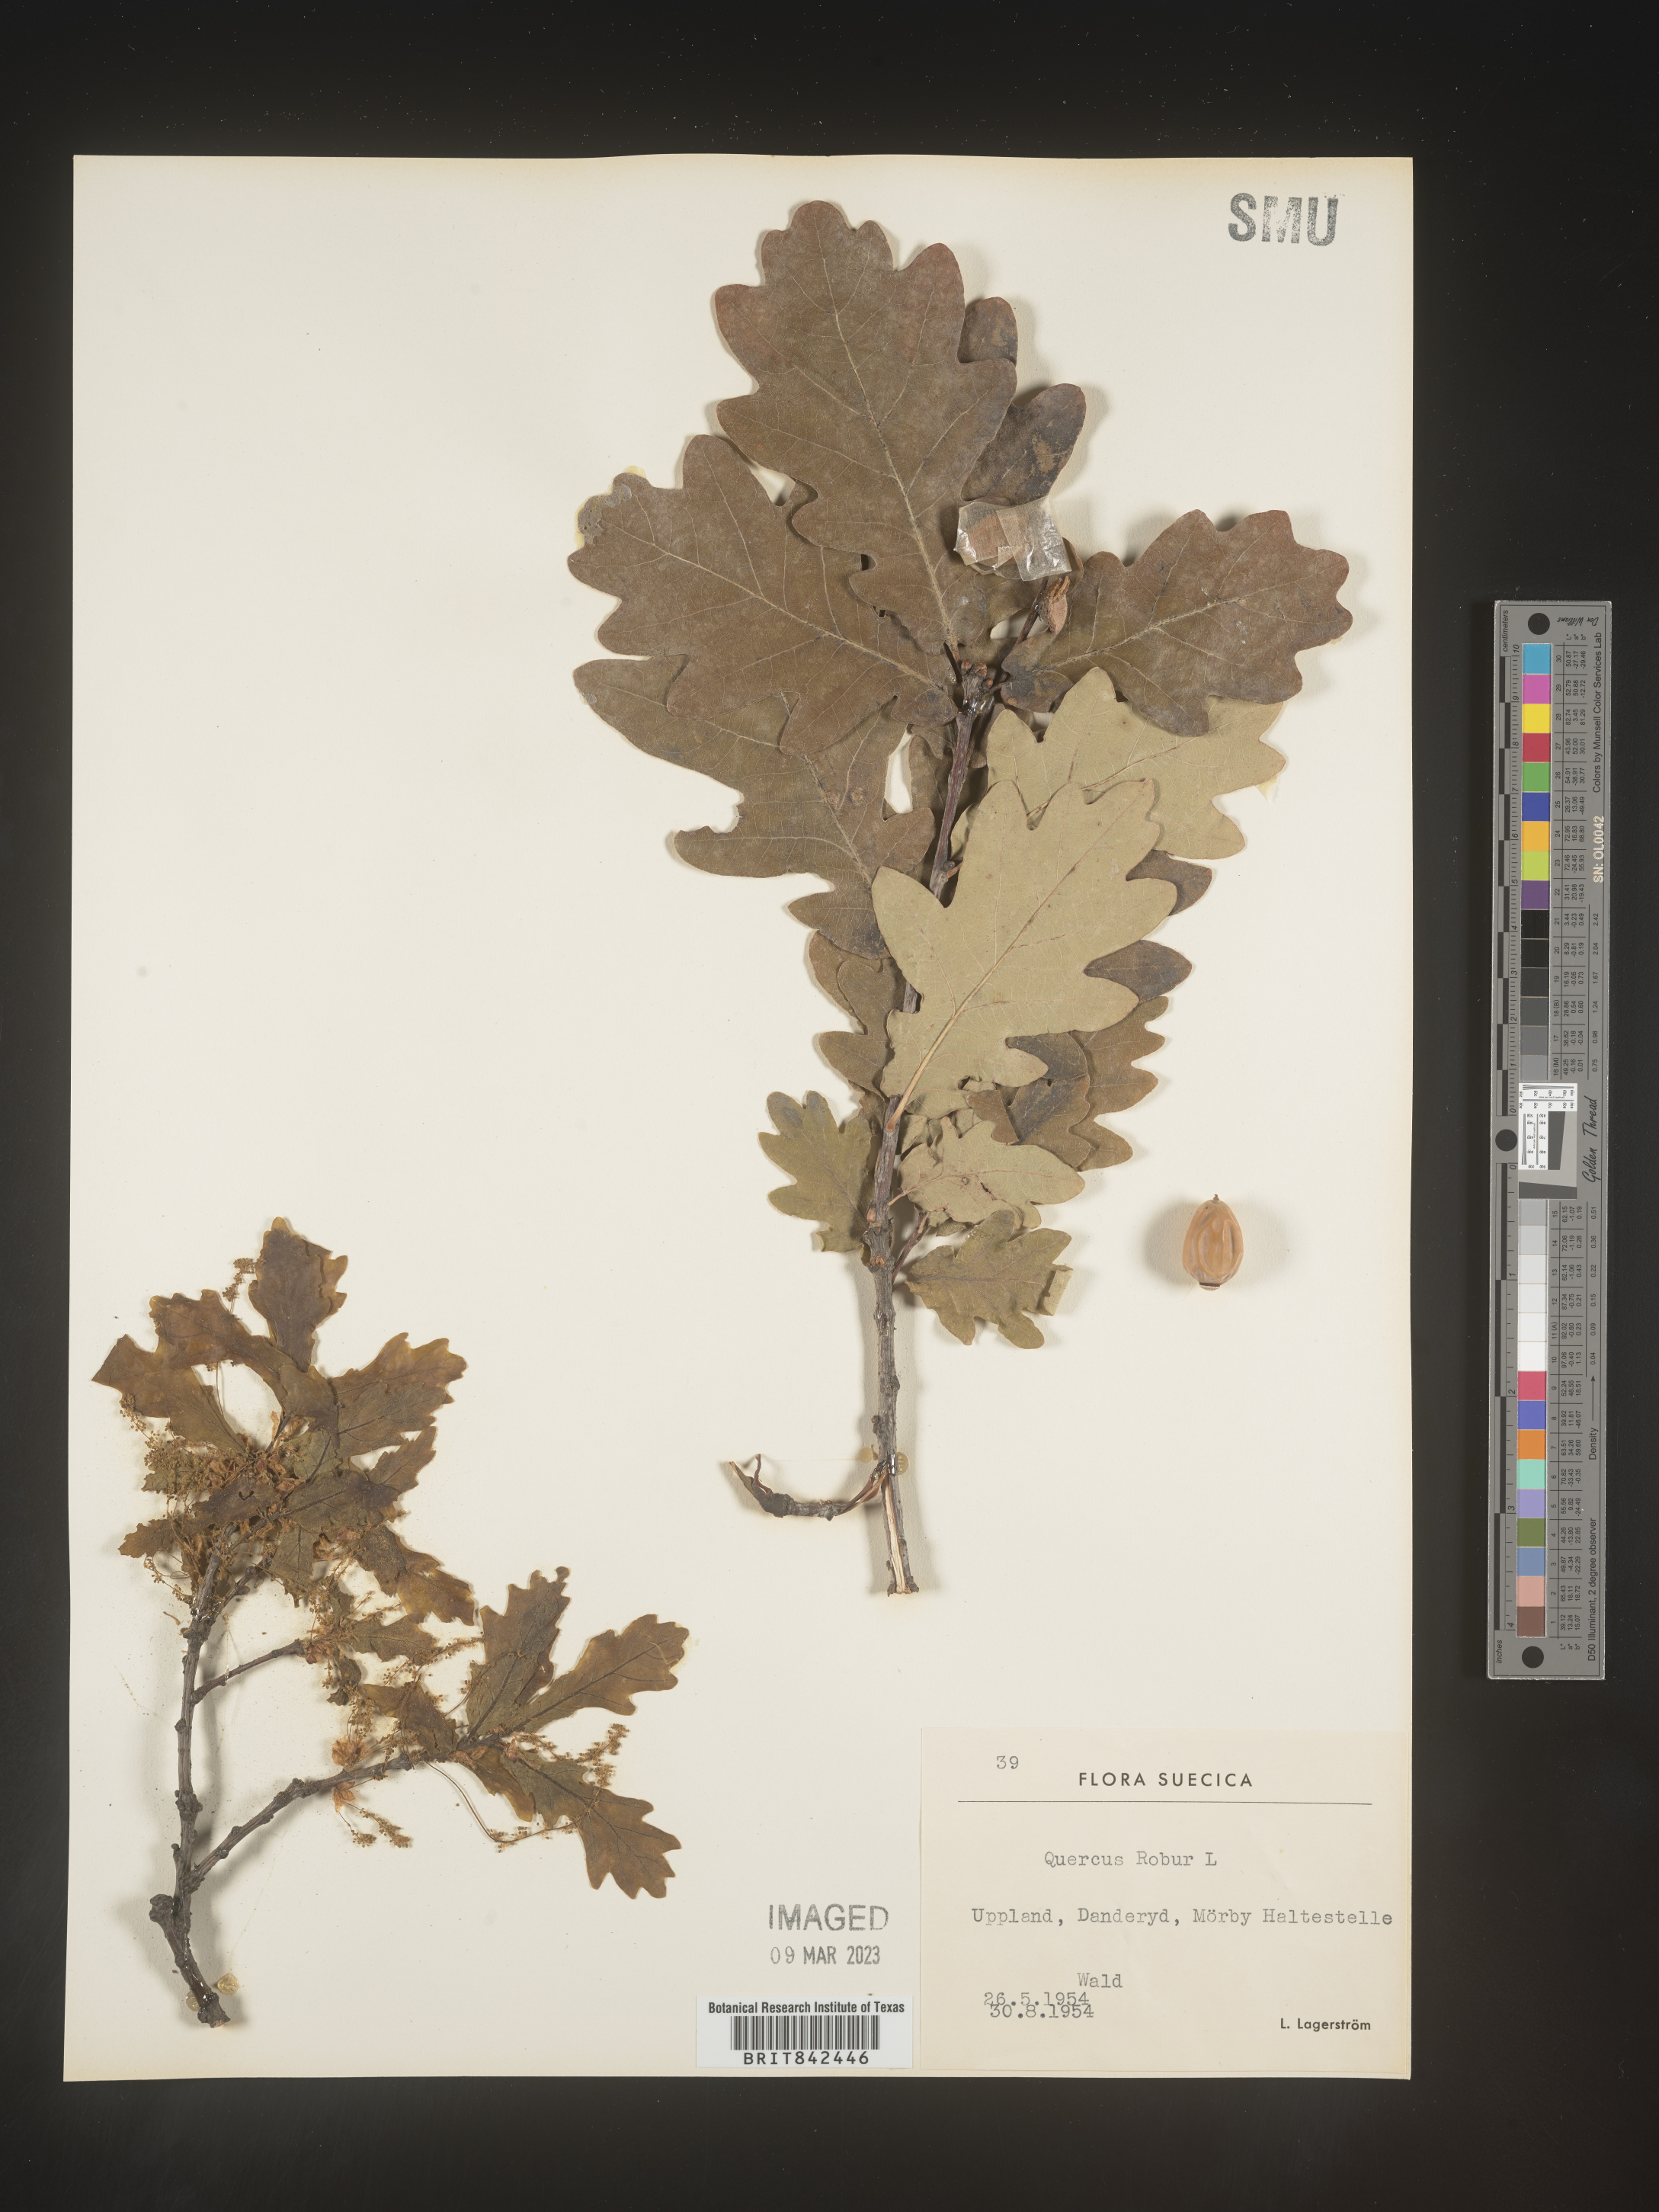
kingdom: Plantae
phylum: Tracheophyta
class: Magnoliopsida
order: Fagales
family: Fagaceae
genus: Quercus
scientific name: Quercus
